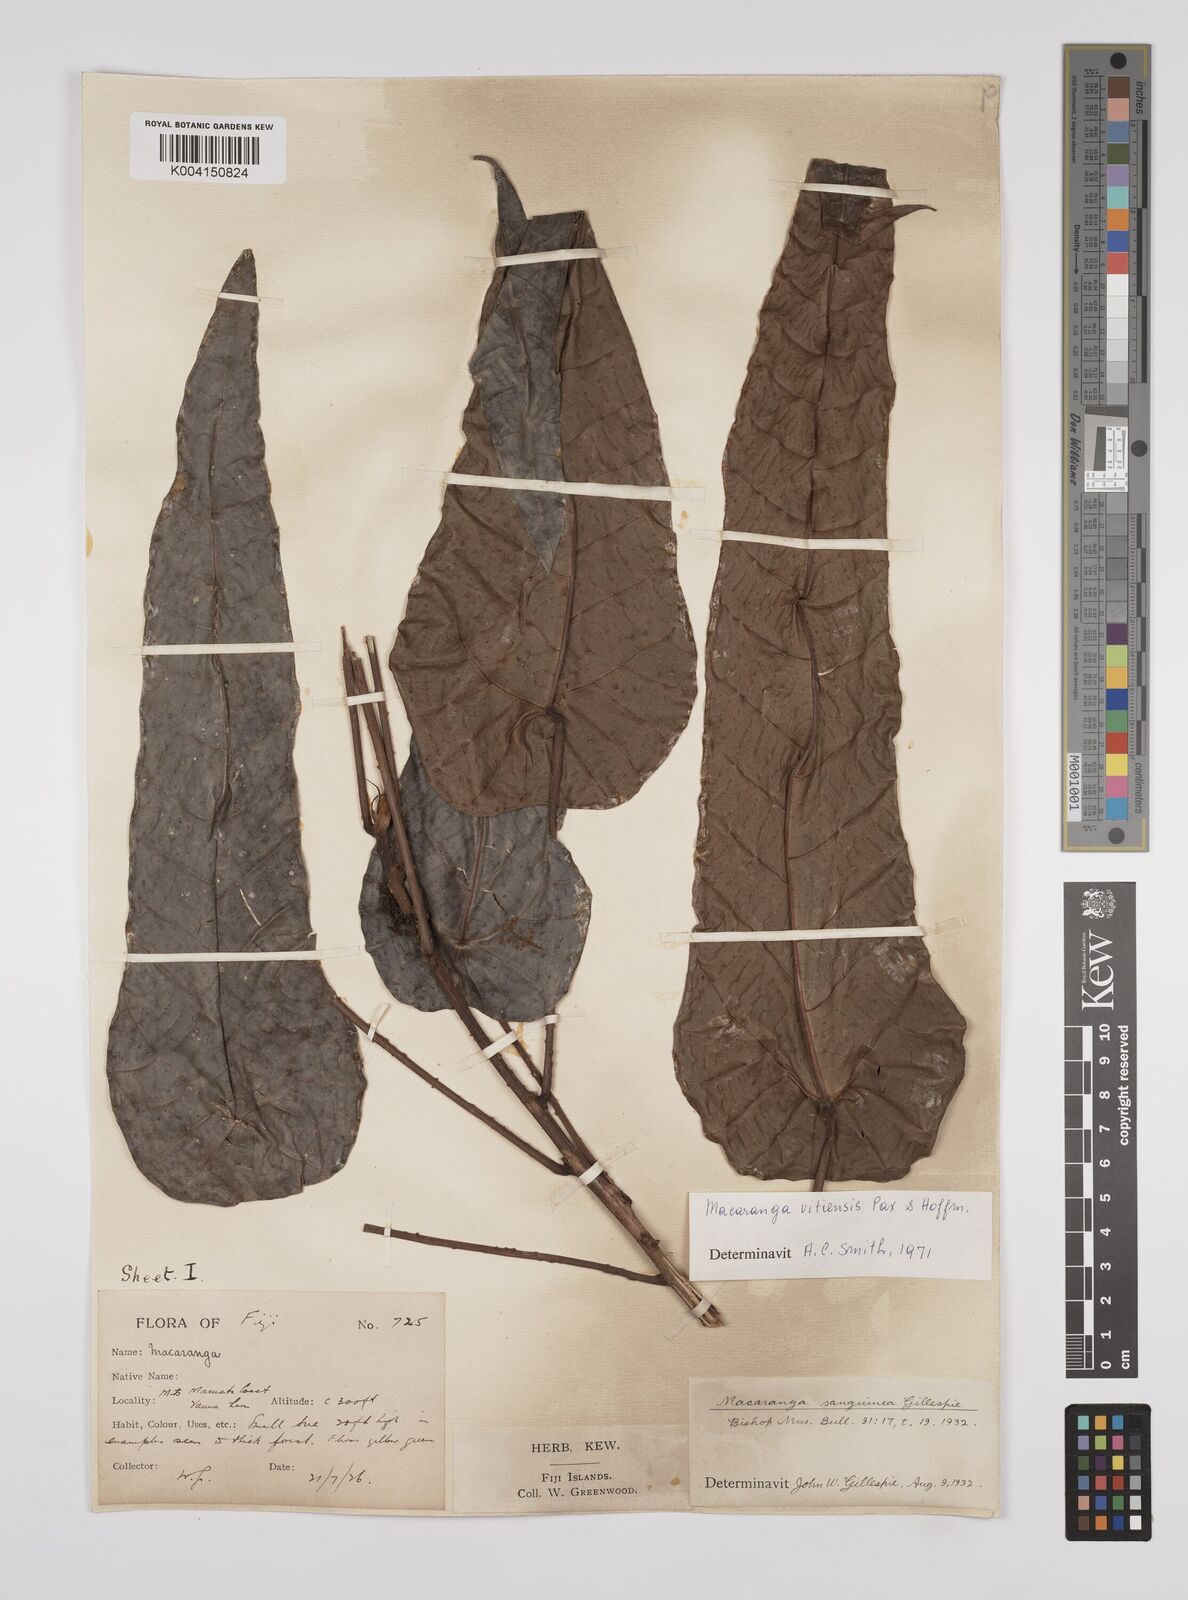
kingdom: Plantae
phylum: Tracheophyta
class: Magnoliopsida
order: Malpighiales
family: Euphorbiaceae
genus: Macaranga
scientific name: Macaranga vitiensis
